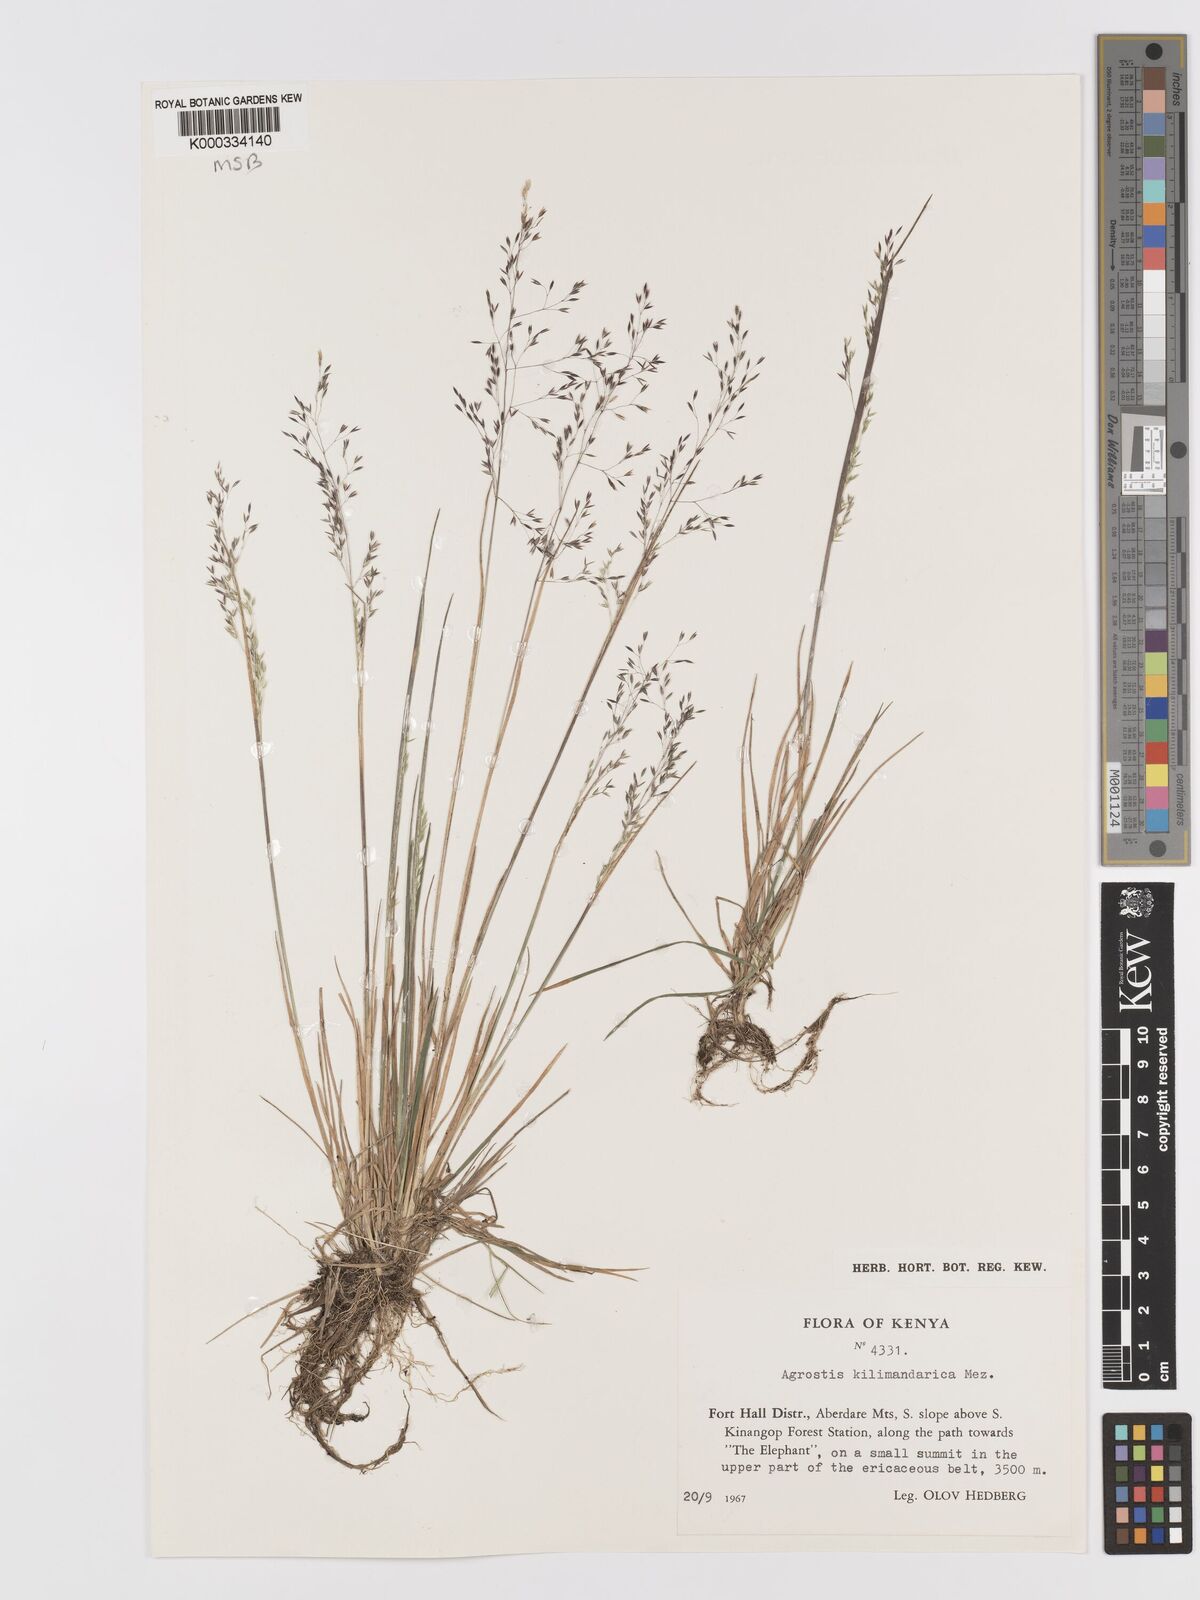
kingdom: Plantae
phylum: Tracheophyta
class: Liliopsida
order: Poales
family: Poaceae
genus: Agrostis
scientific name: Agrostis kilimandscharica
